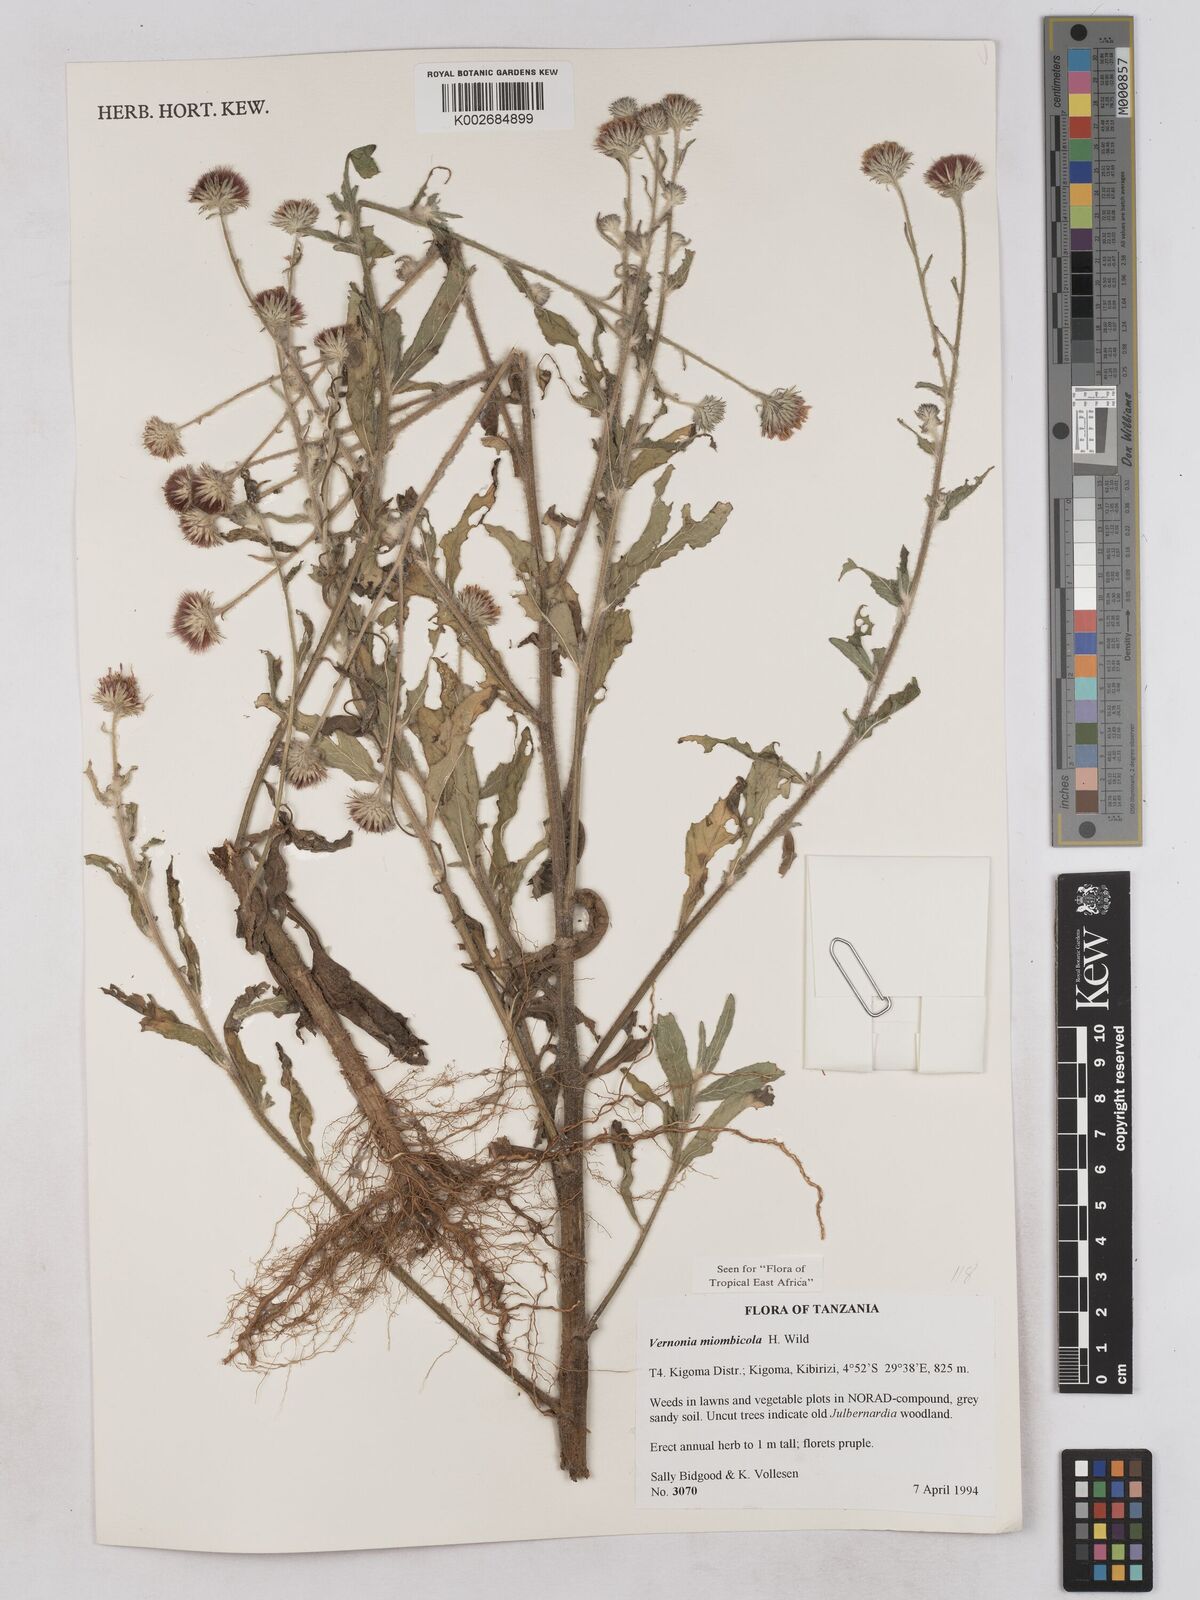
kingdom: Plantae
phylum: Tracheophyta
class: Magnoliopsida
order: Asterales
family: Asteraceae
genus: Vernonia
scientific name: Vernonia miombicola
